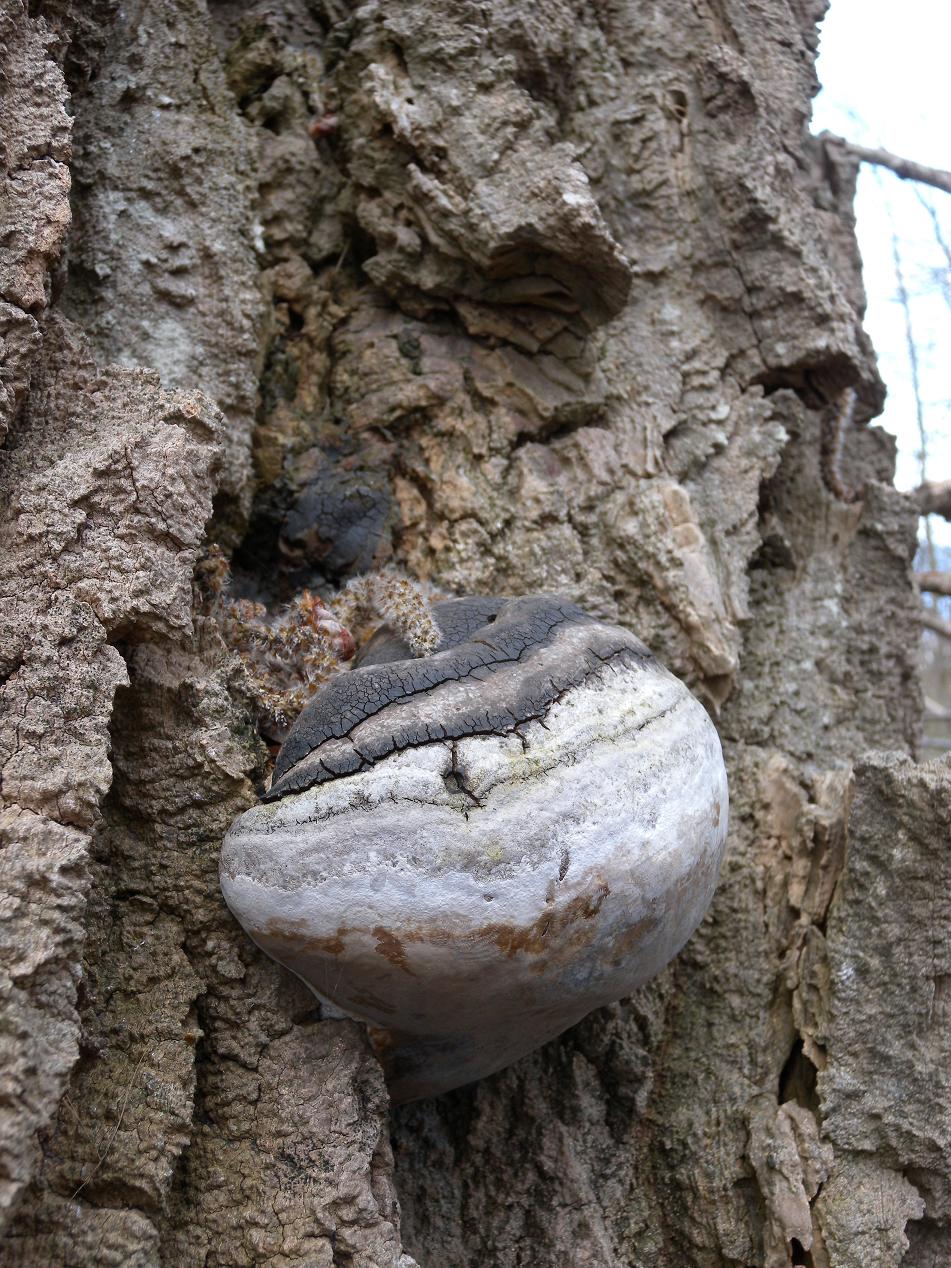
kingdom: Fungi
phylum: Basidiomycota
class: Agaricomycetes
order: Hymenochaetales
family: Hymenochaetaceae
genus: Phellinus
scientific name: Phellinus populicola
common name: poppel-ildporesvamp
